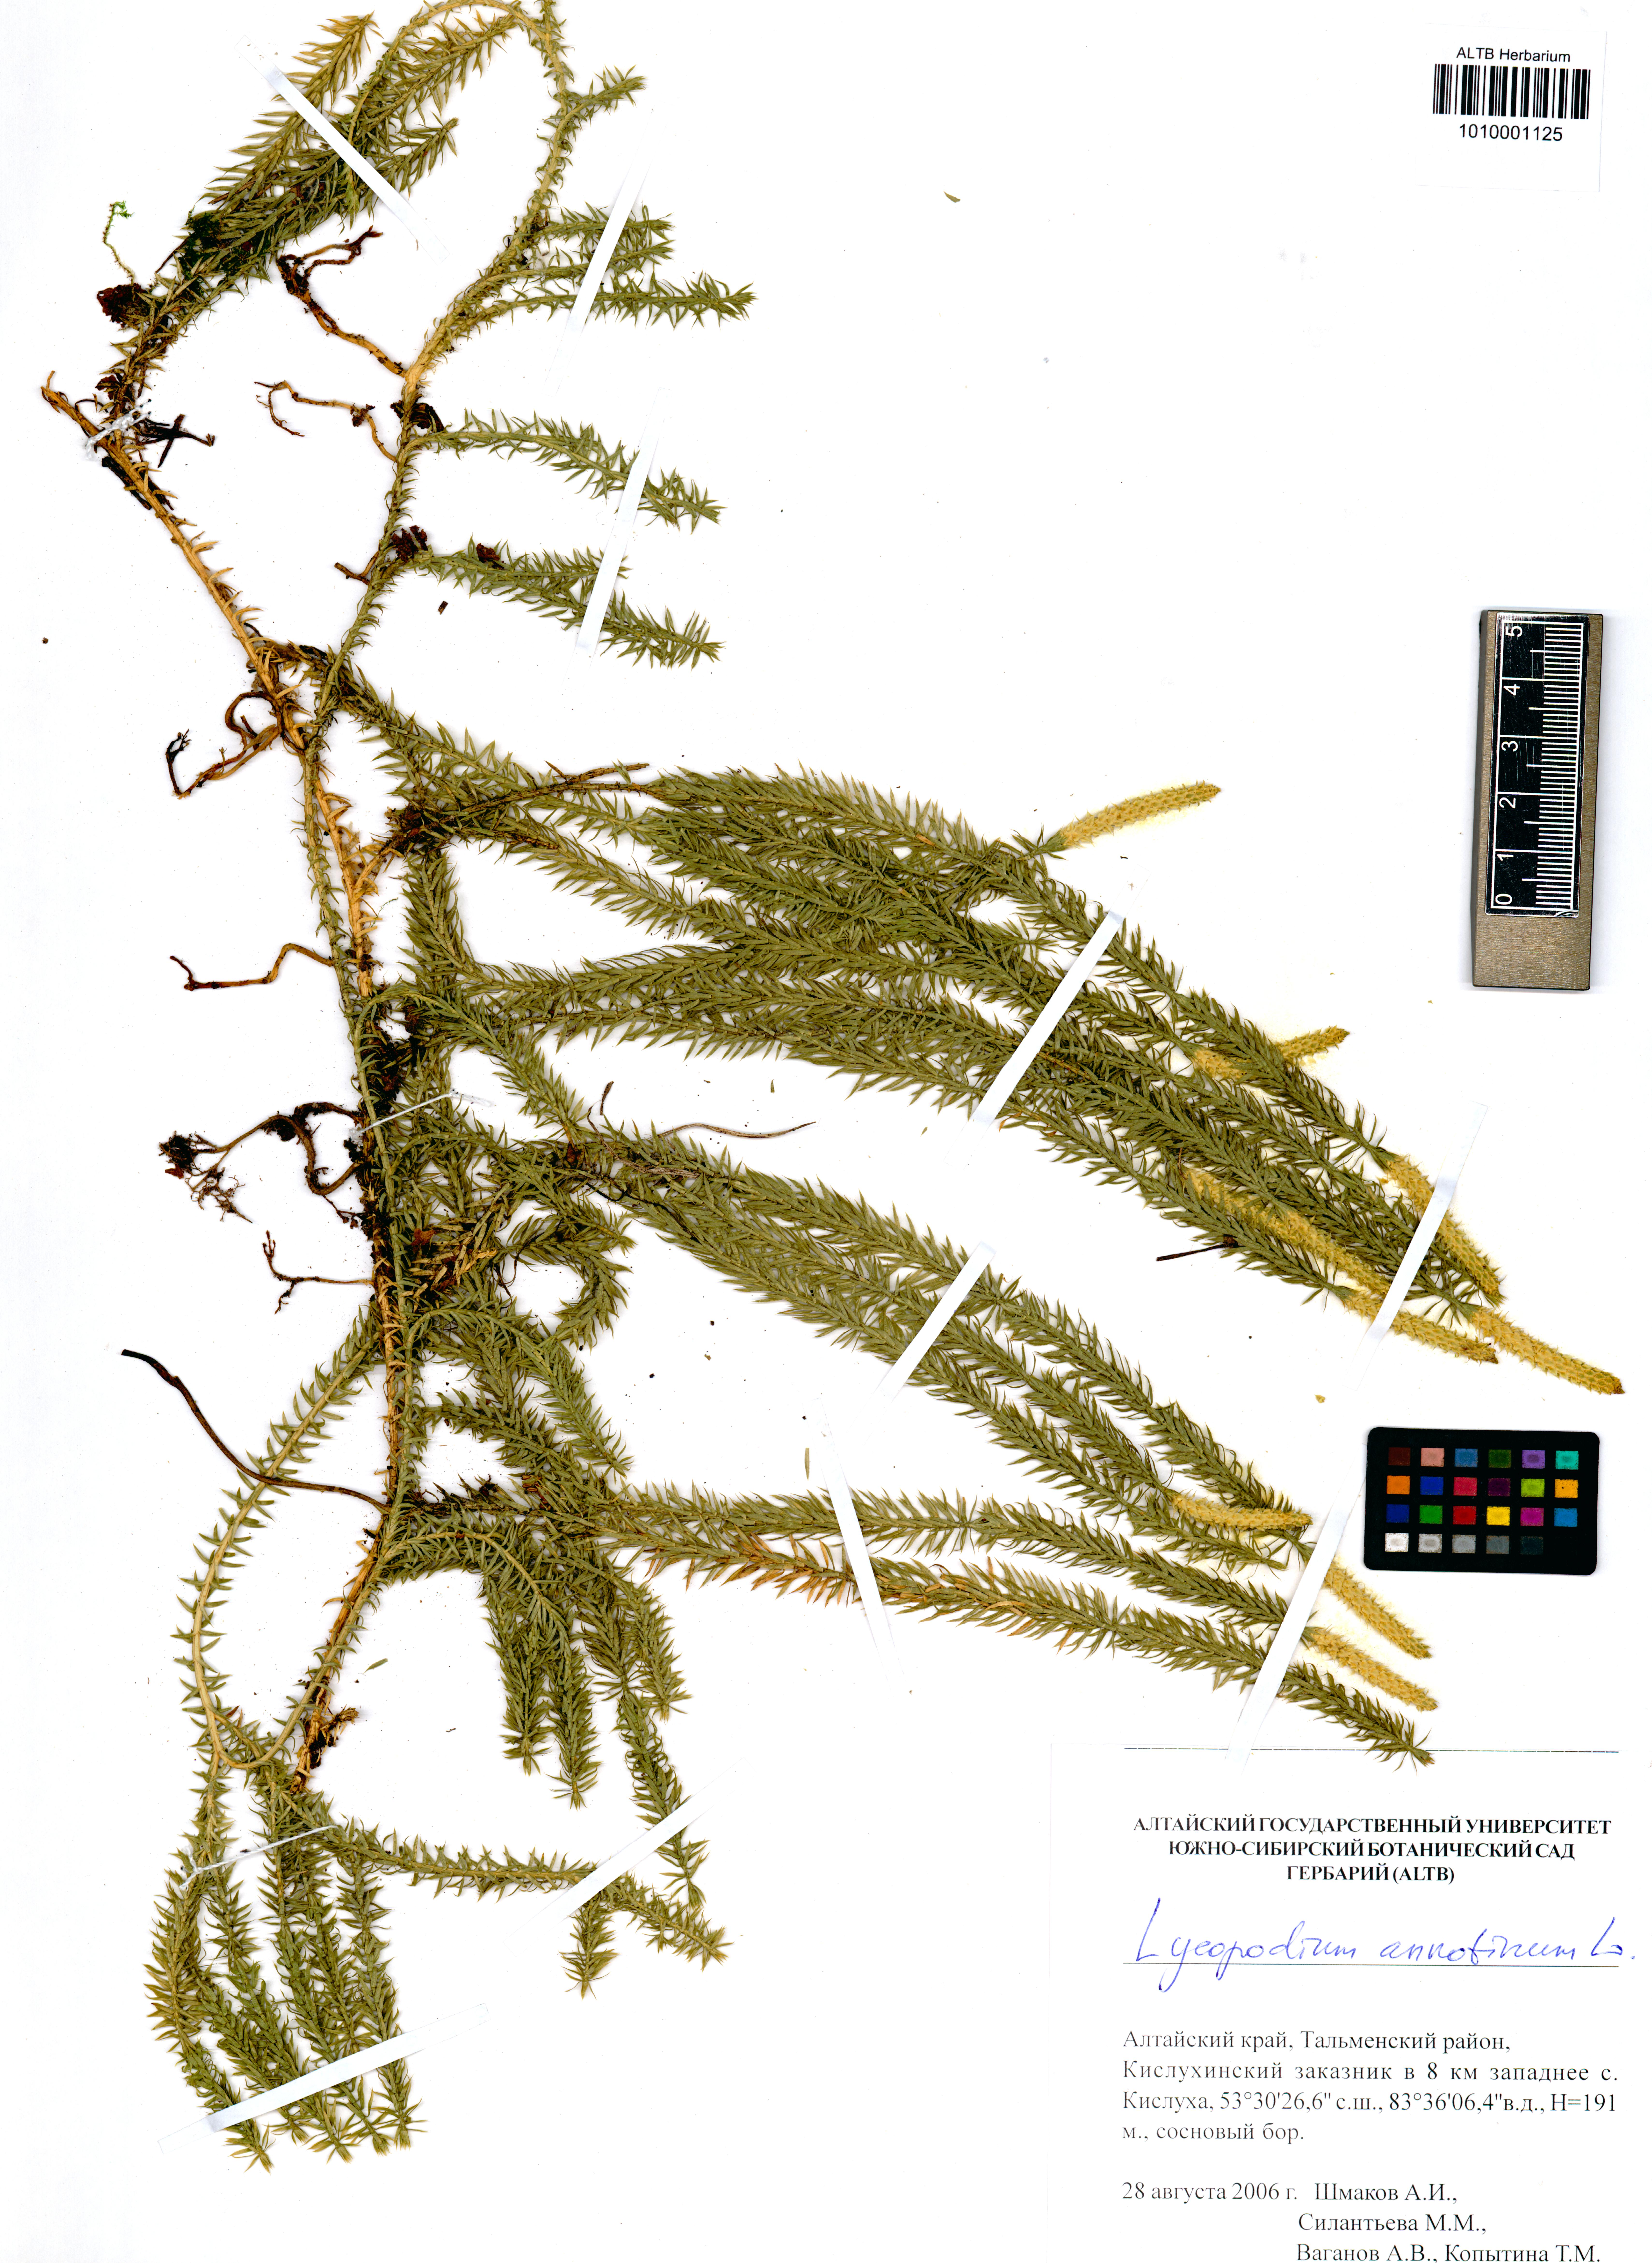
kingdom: Plantae
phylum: Tracheophyta
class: Lycopodiopsida
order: Lycopodiales
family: Lycopodiaceae
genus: Spinulum
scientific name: Spinulum annotinum
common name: Interrupted club-moss
